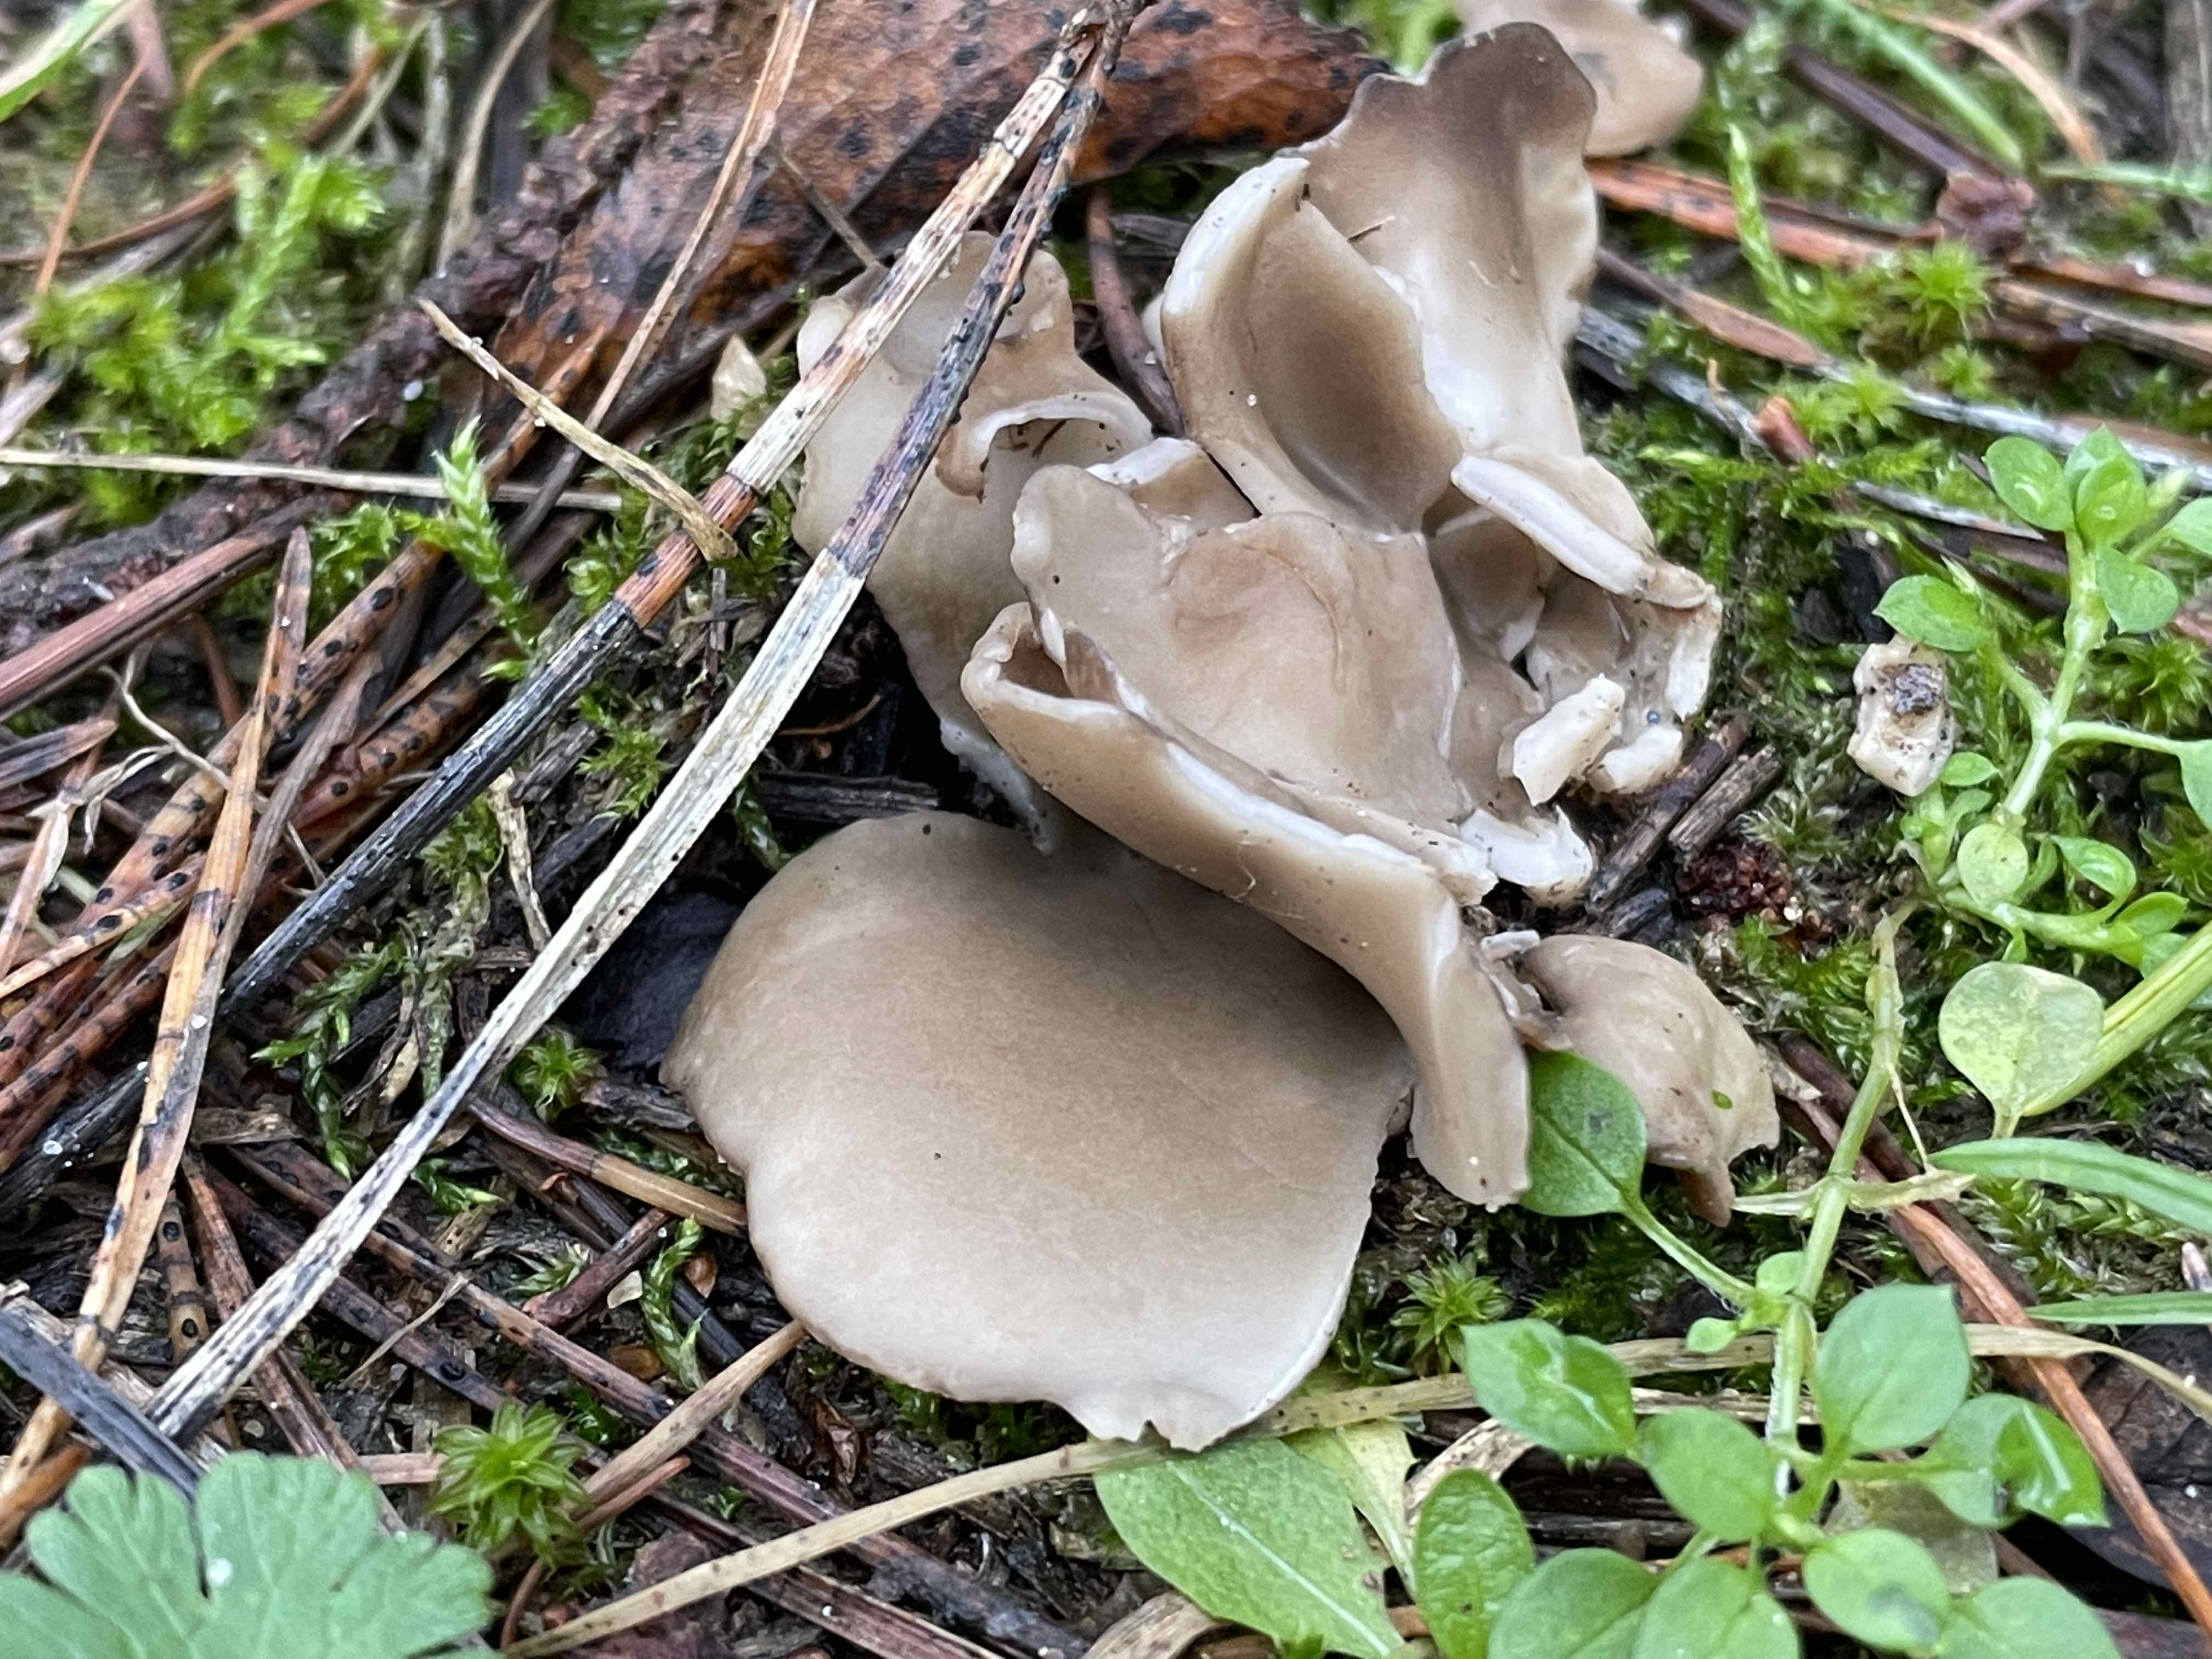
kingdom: Fungi
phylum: Ascomycota
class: Pezizomycetes
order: Pezizales
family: Helvellaceae
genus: Dissingia
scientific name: Dissingia leucomelaena
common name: sorthvid foldhat
